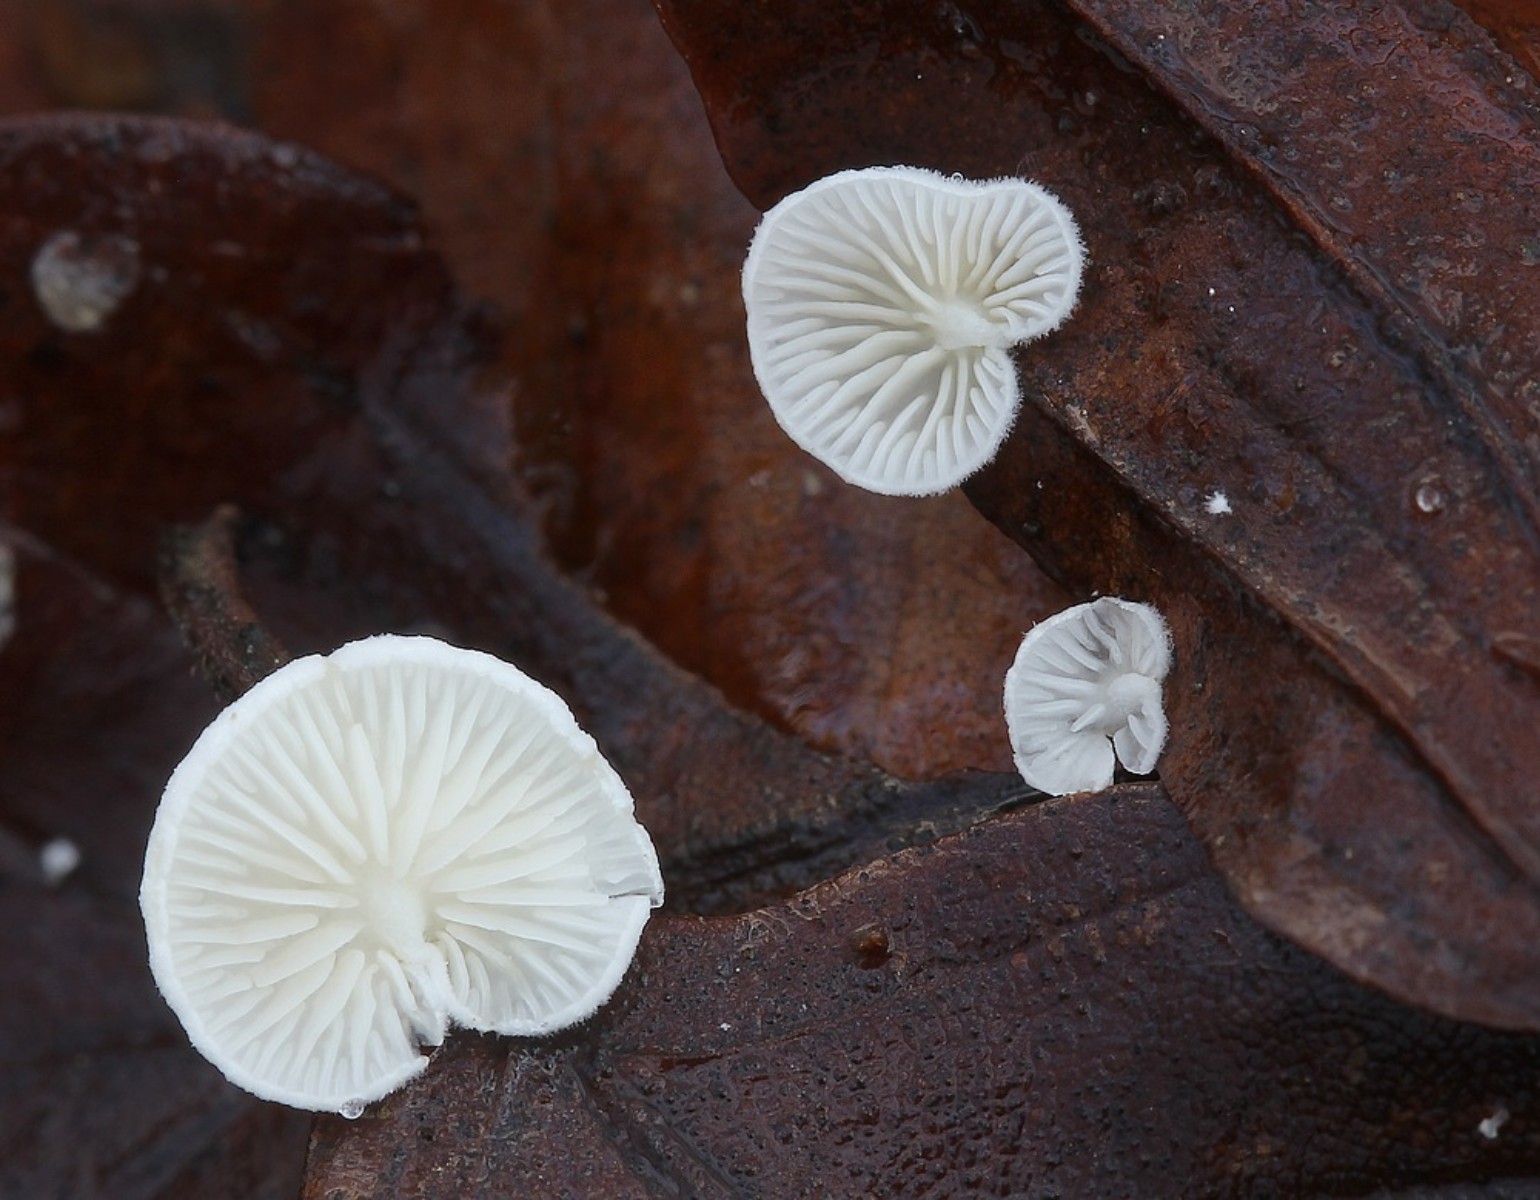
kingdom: Fungi
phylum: Basidiomycota
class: Agaricomycetes
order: Agaricales
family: Crepidotaceae
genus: Crepidotus
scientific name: Crepidotus epibryus
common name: førne-muslingesvamp
